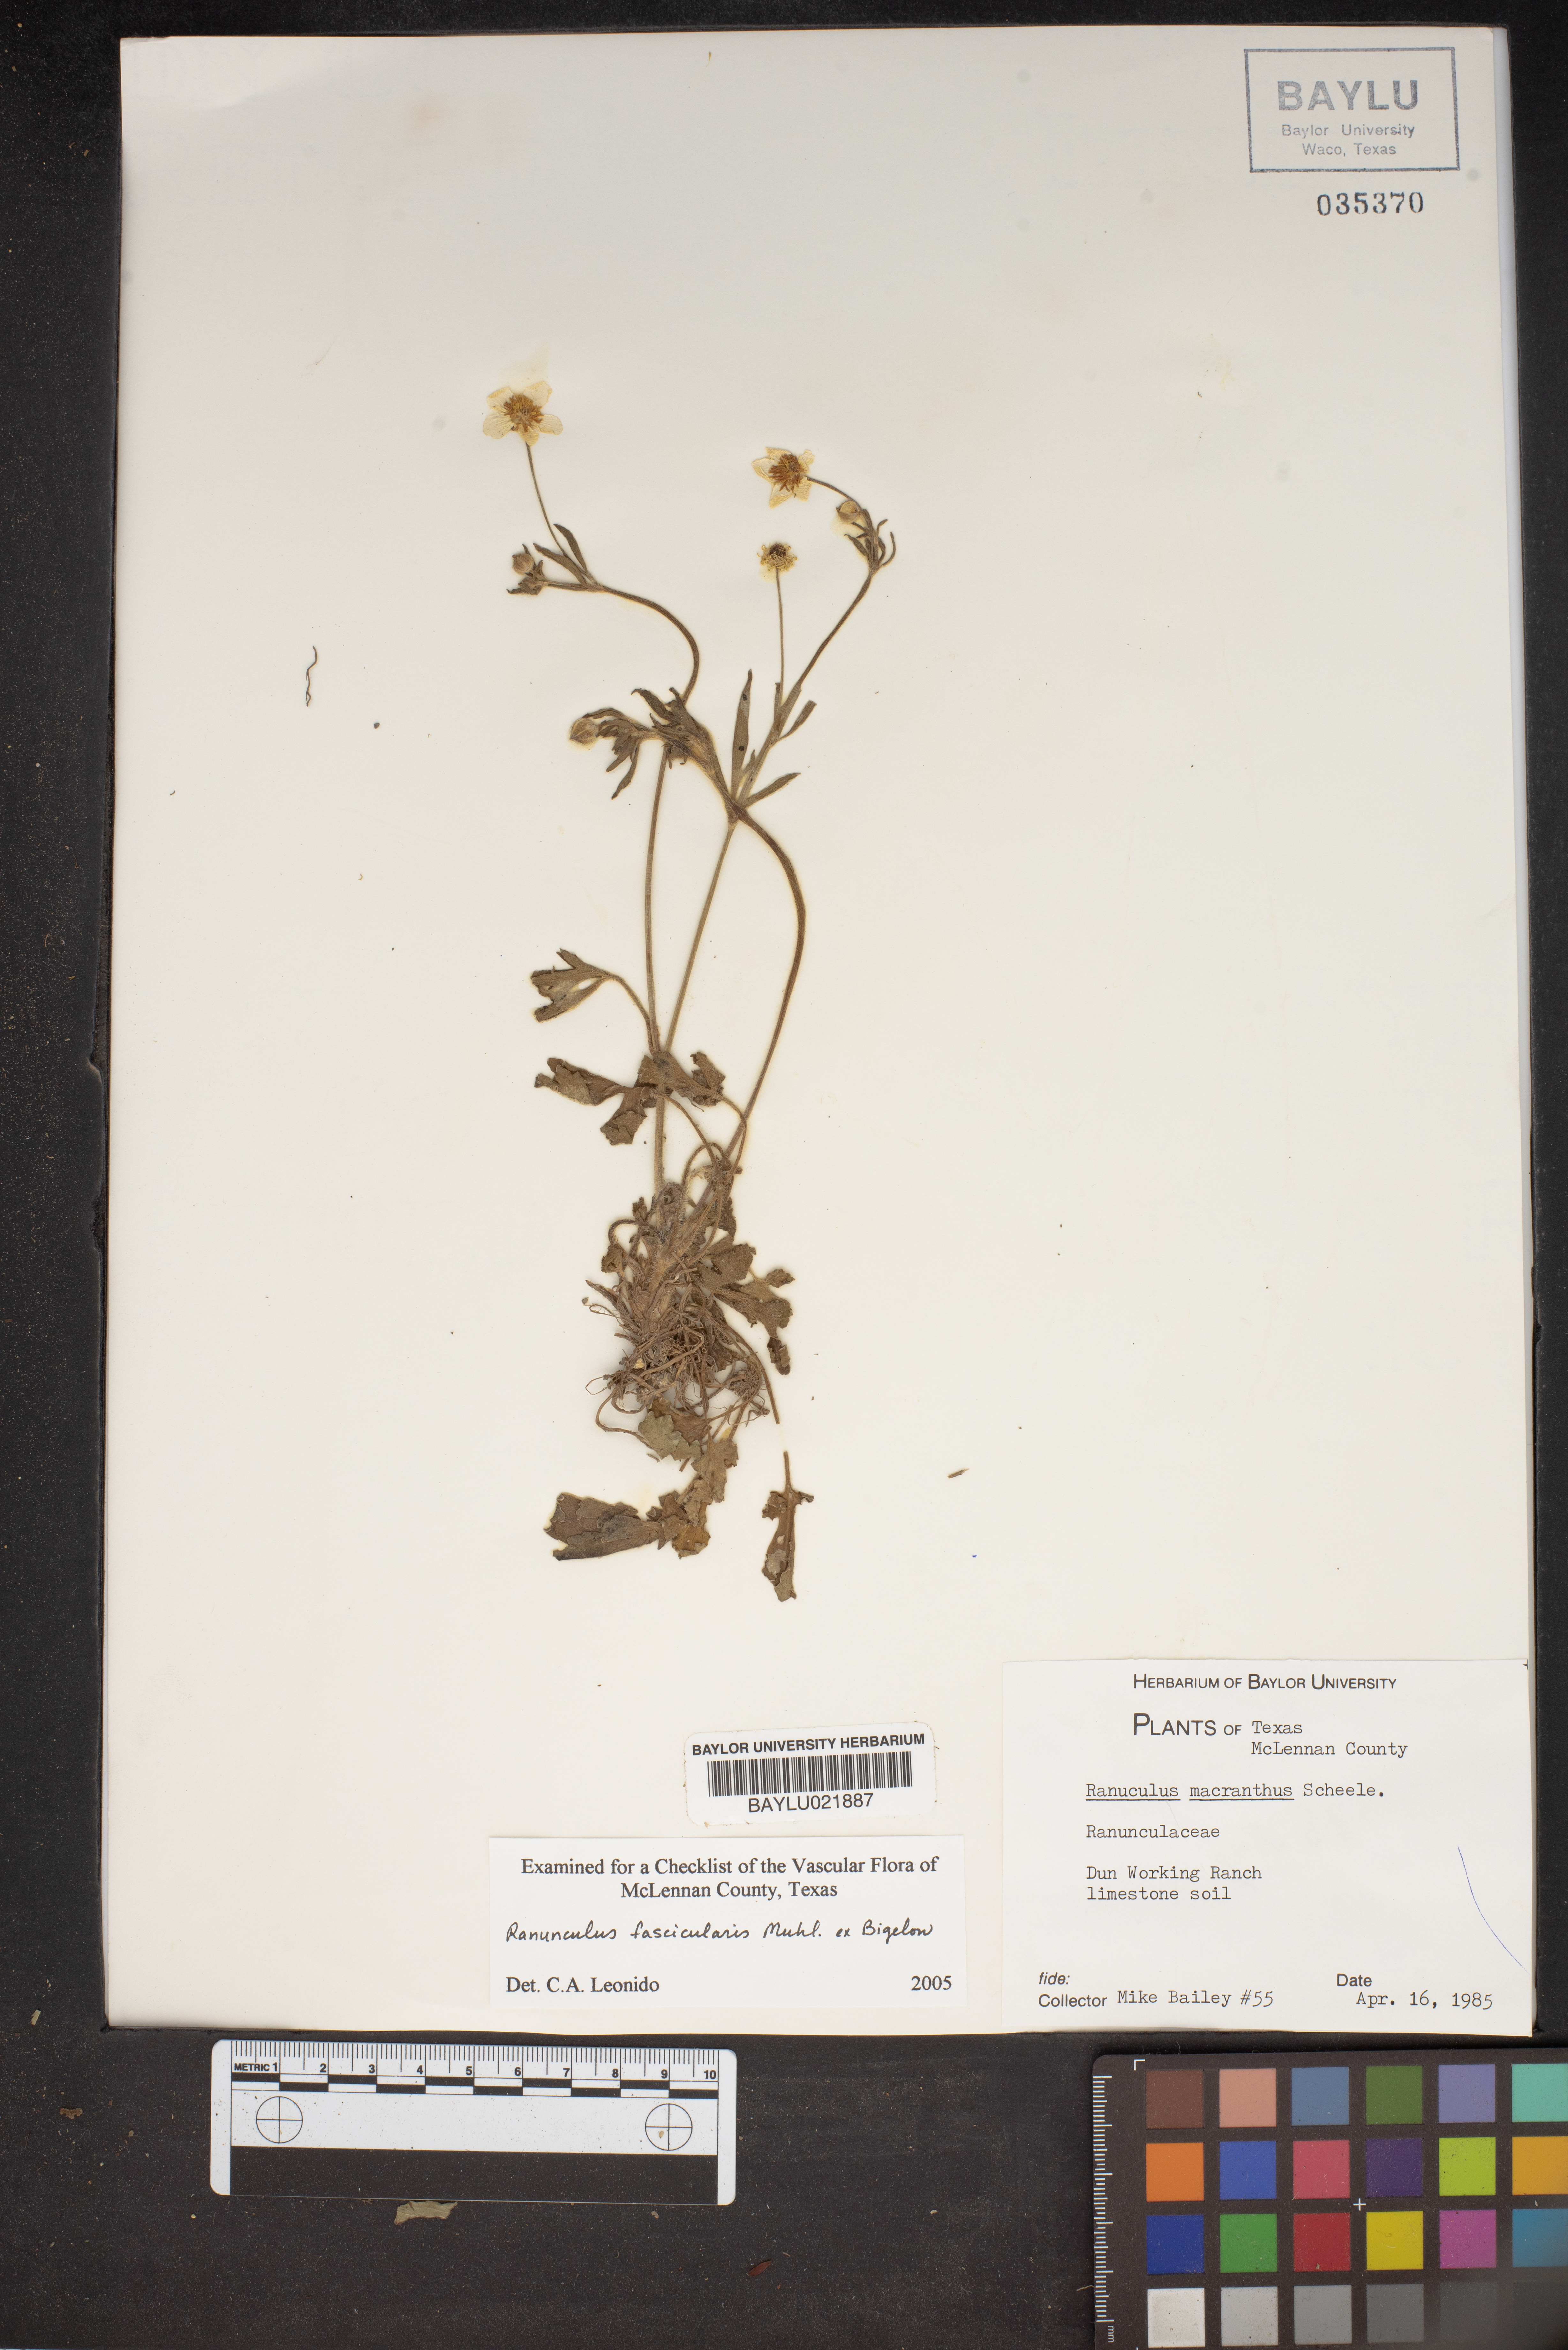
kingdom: Plantae
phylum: Tracheophyta
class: Magnoliopsida
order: Ranunculales
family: Ranunculaceae
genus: Ranunculus
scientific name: Ranunculus macranthus
